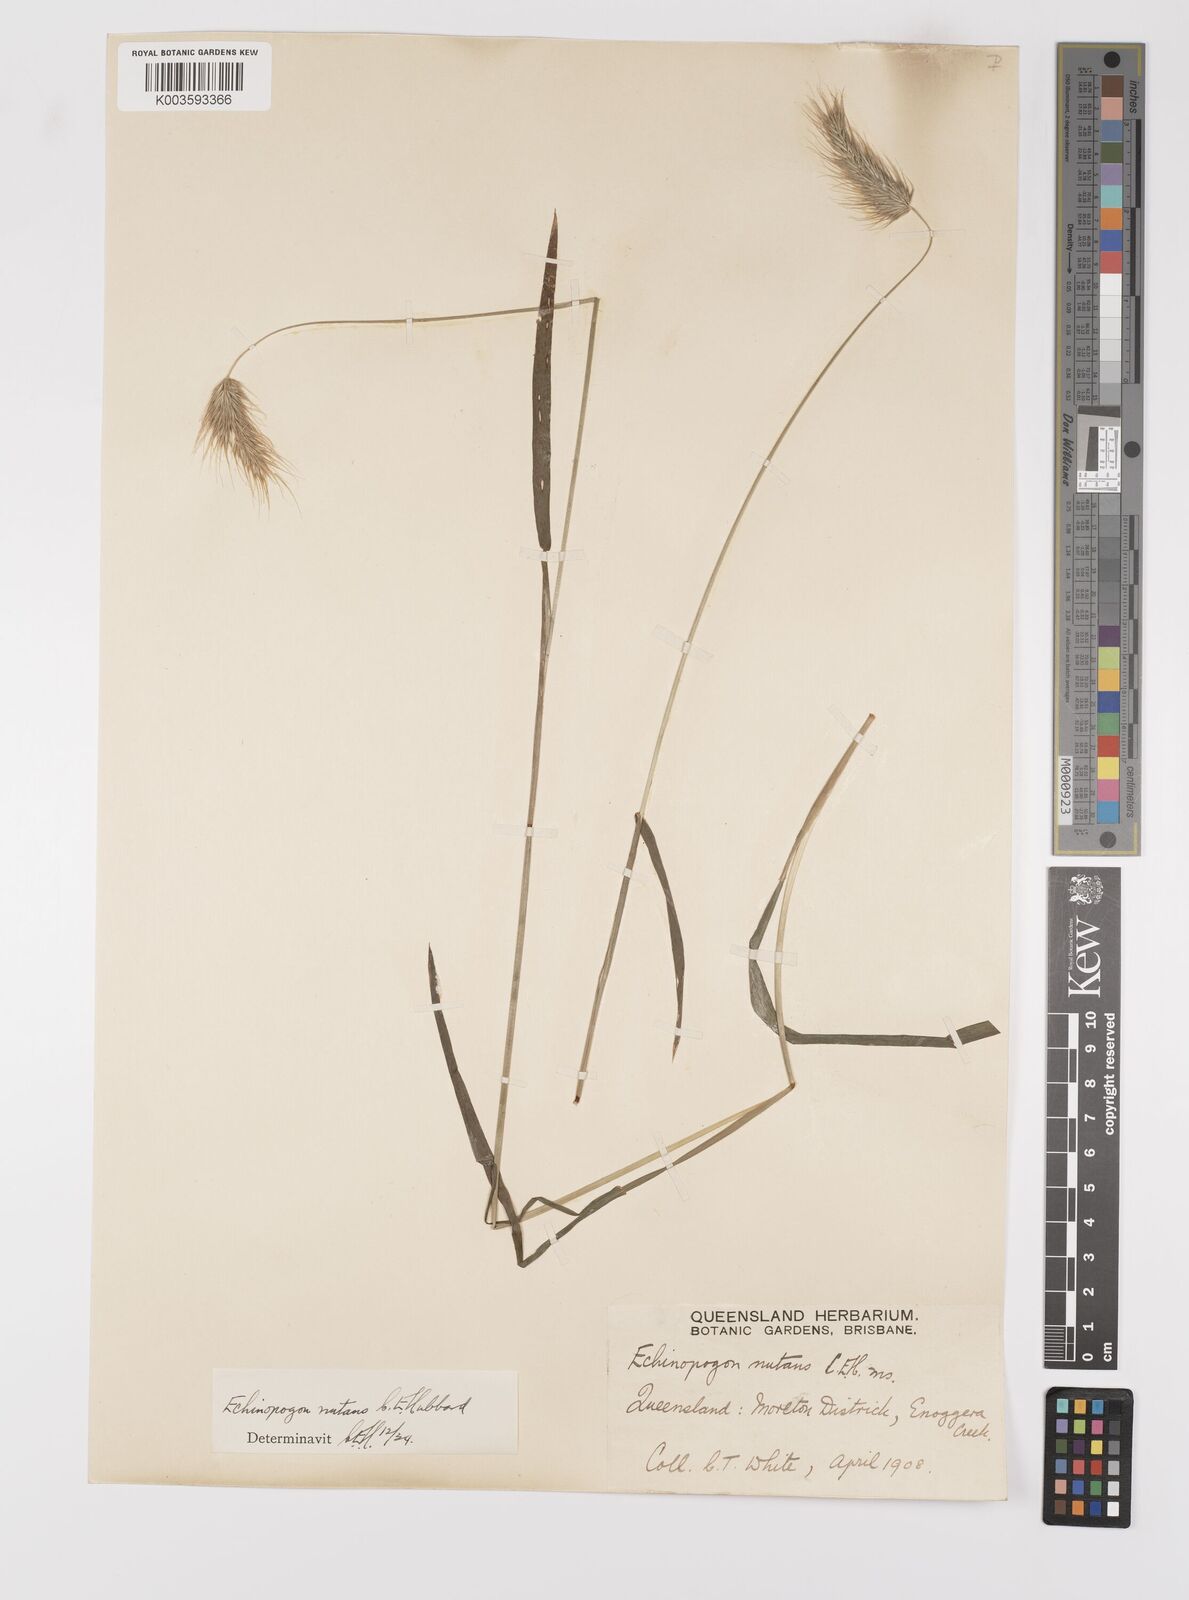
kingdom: Plantae
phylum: Tracheophyta
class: Liliopsida
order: Poales
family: Poaceae
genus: Echinopogon
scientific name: Echinopogon nutans
